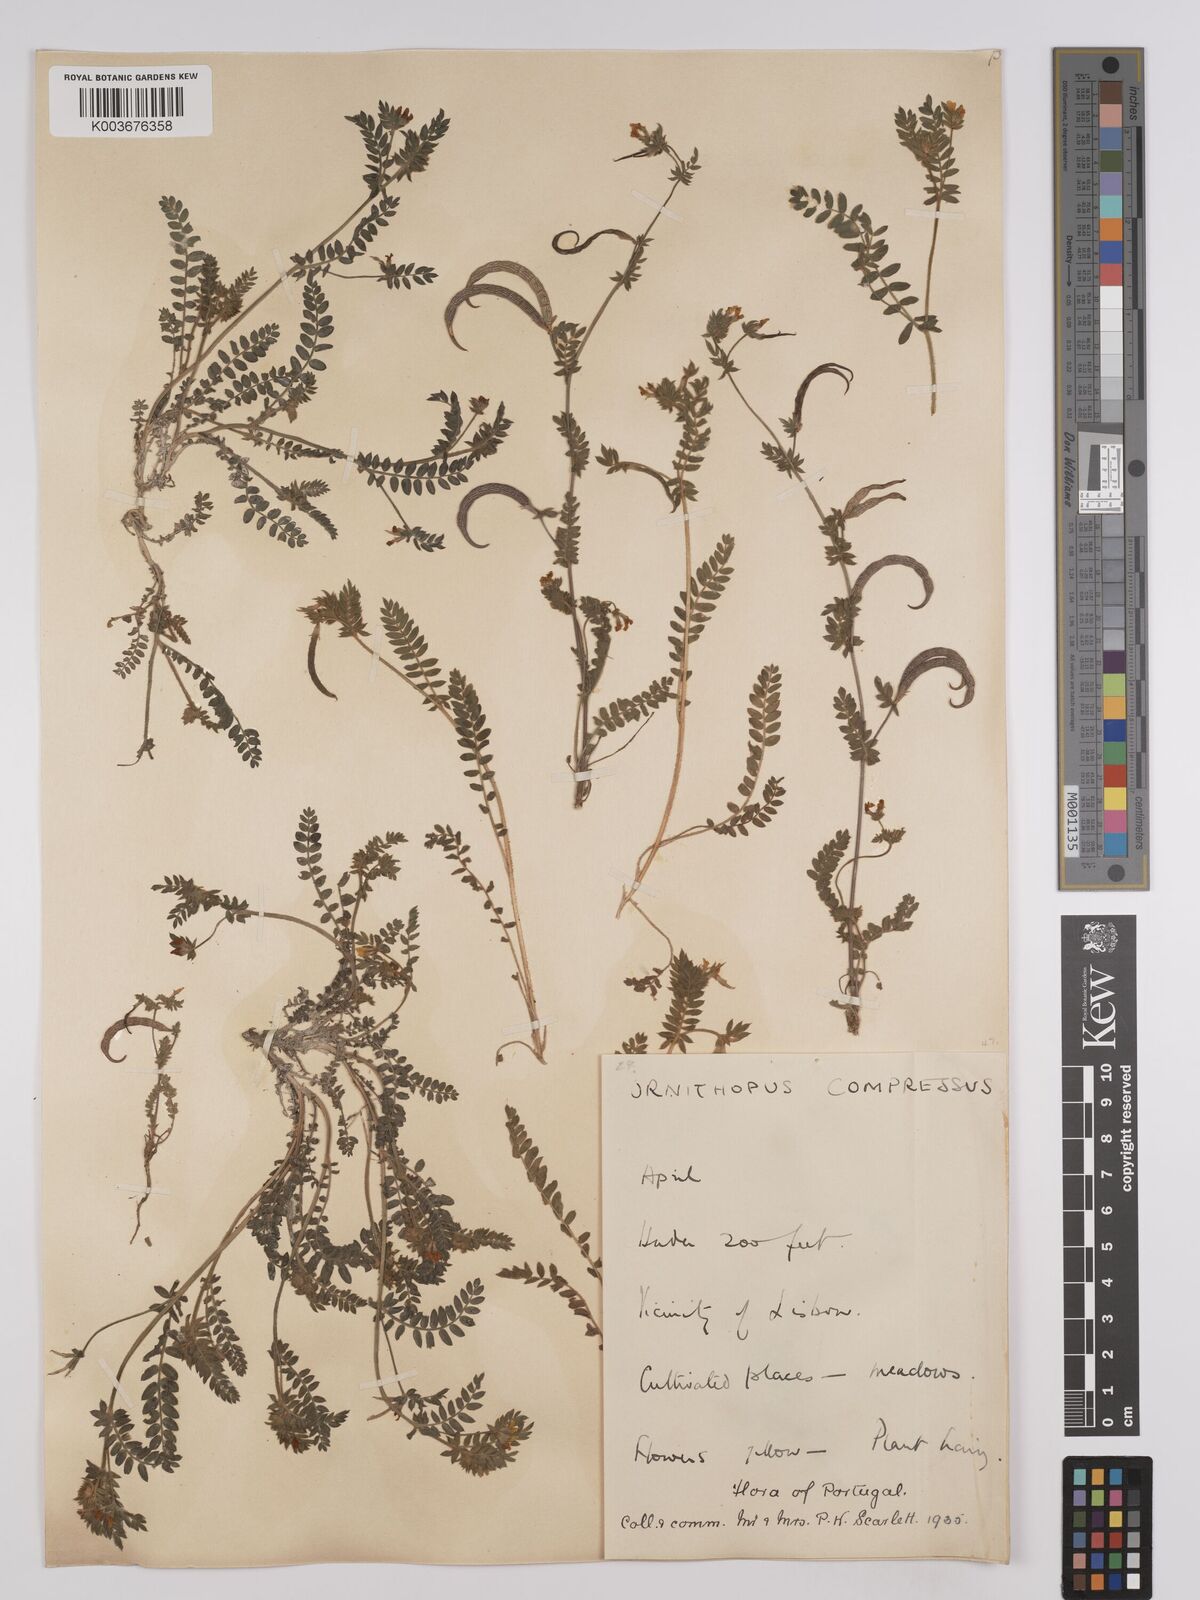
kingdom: Plantae
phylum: Tracheophyta
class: Magnoliopsida
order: Fabales
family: Fabaceae
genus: Ornithopus
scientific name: Ornithopus compressus
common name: Yellow serradella
